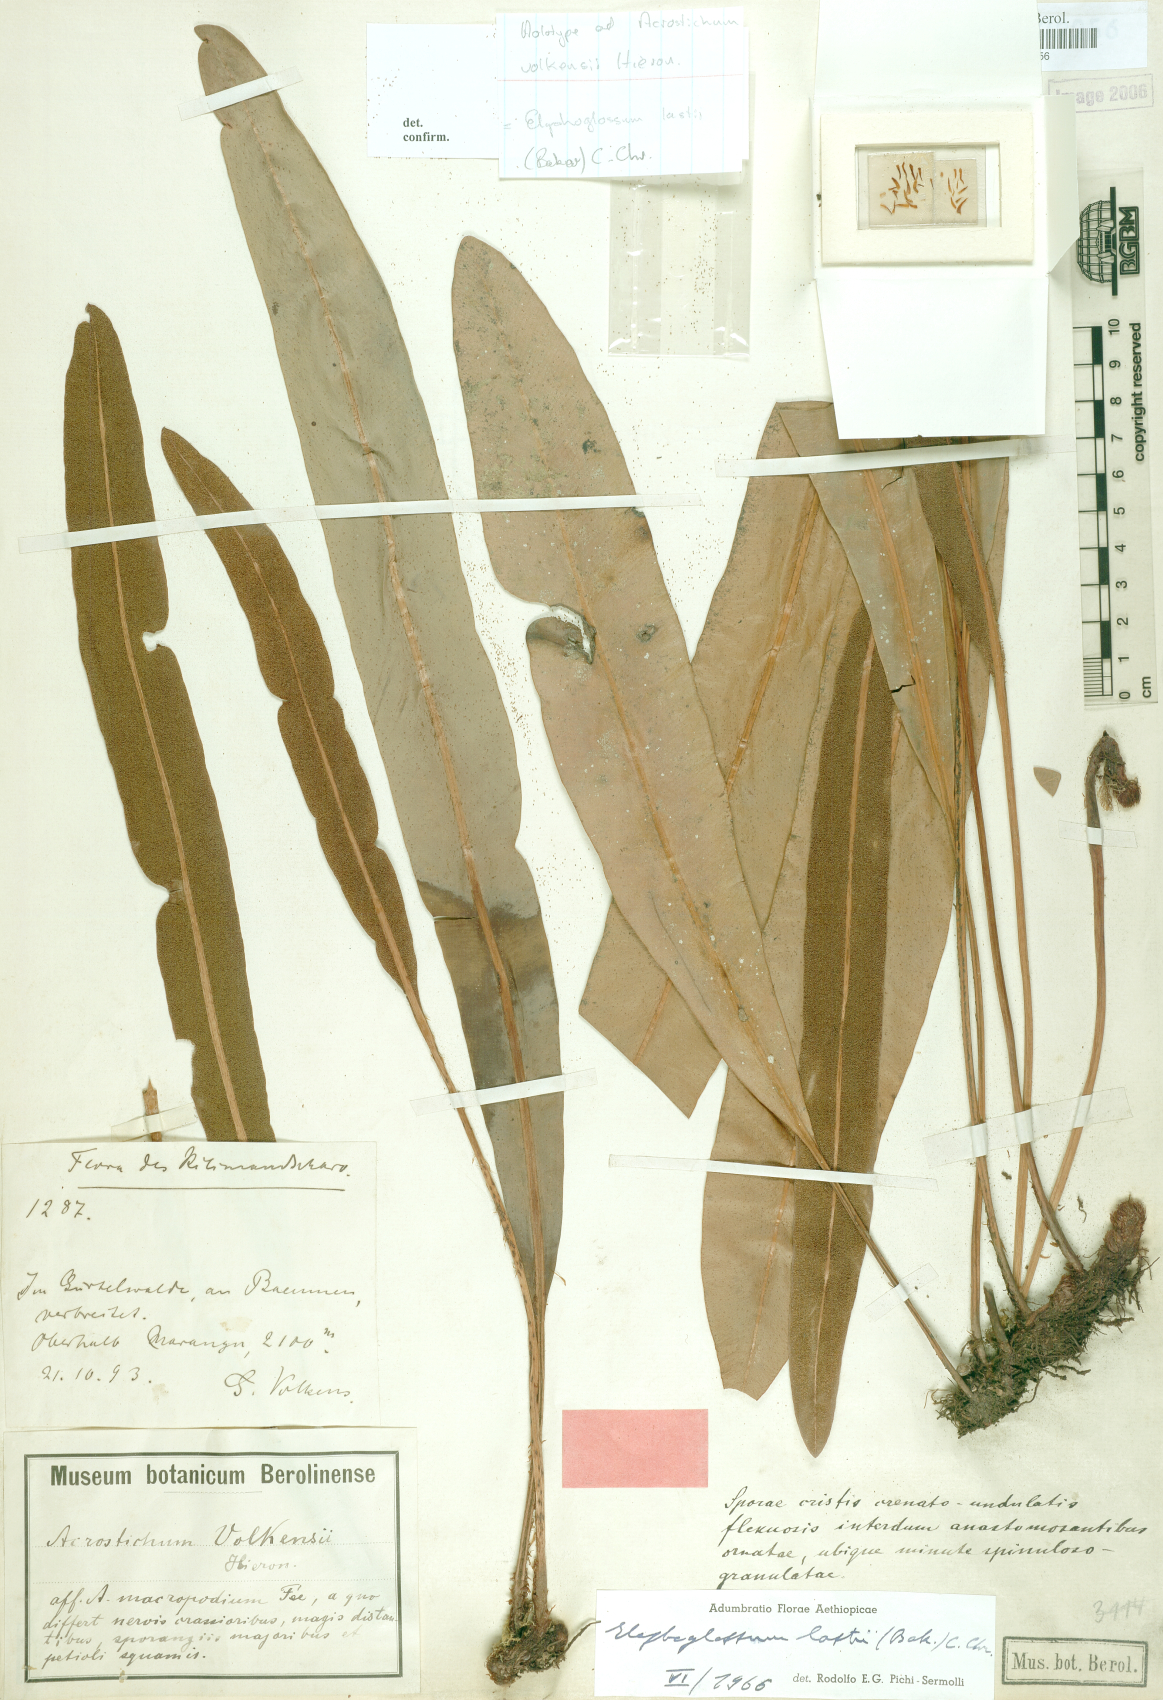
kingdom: Plantae
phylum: Tracheophyta
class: Polypodiopsida
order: Polypodiales
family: Dryopteridaceae
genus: Elaphoglossum
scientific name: Elaphoglossum lastii
